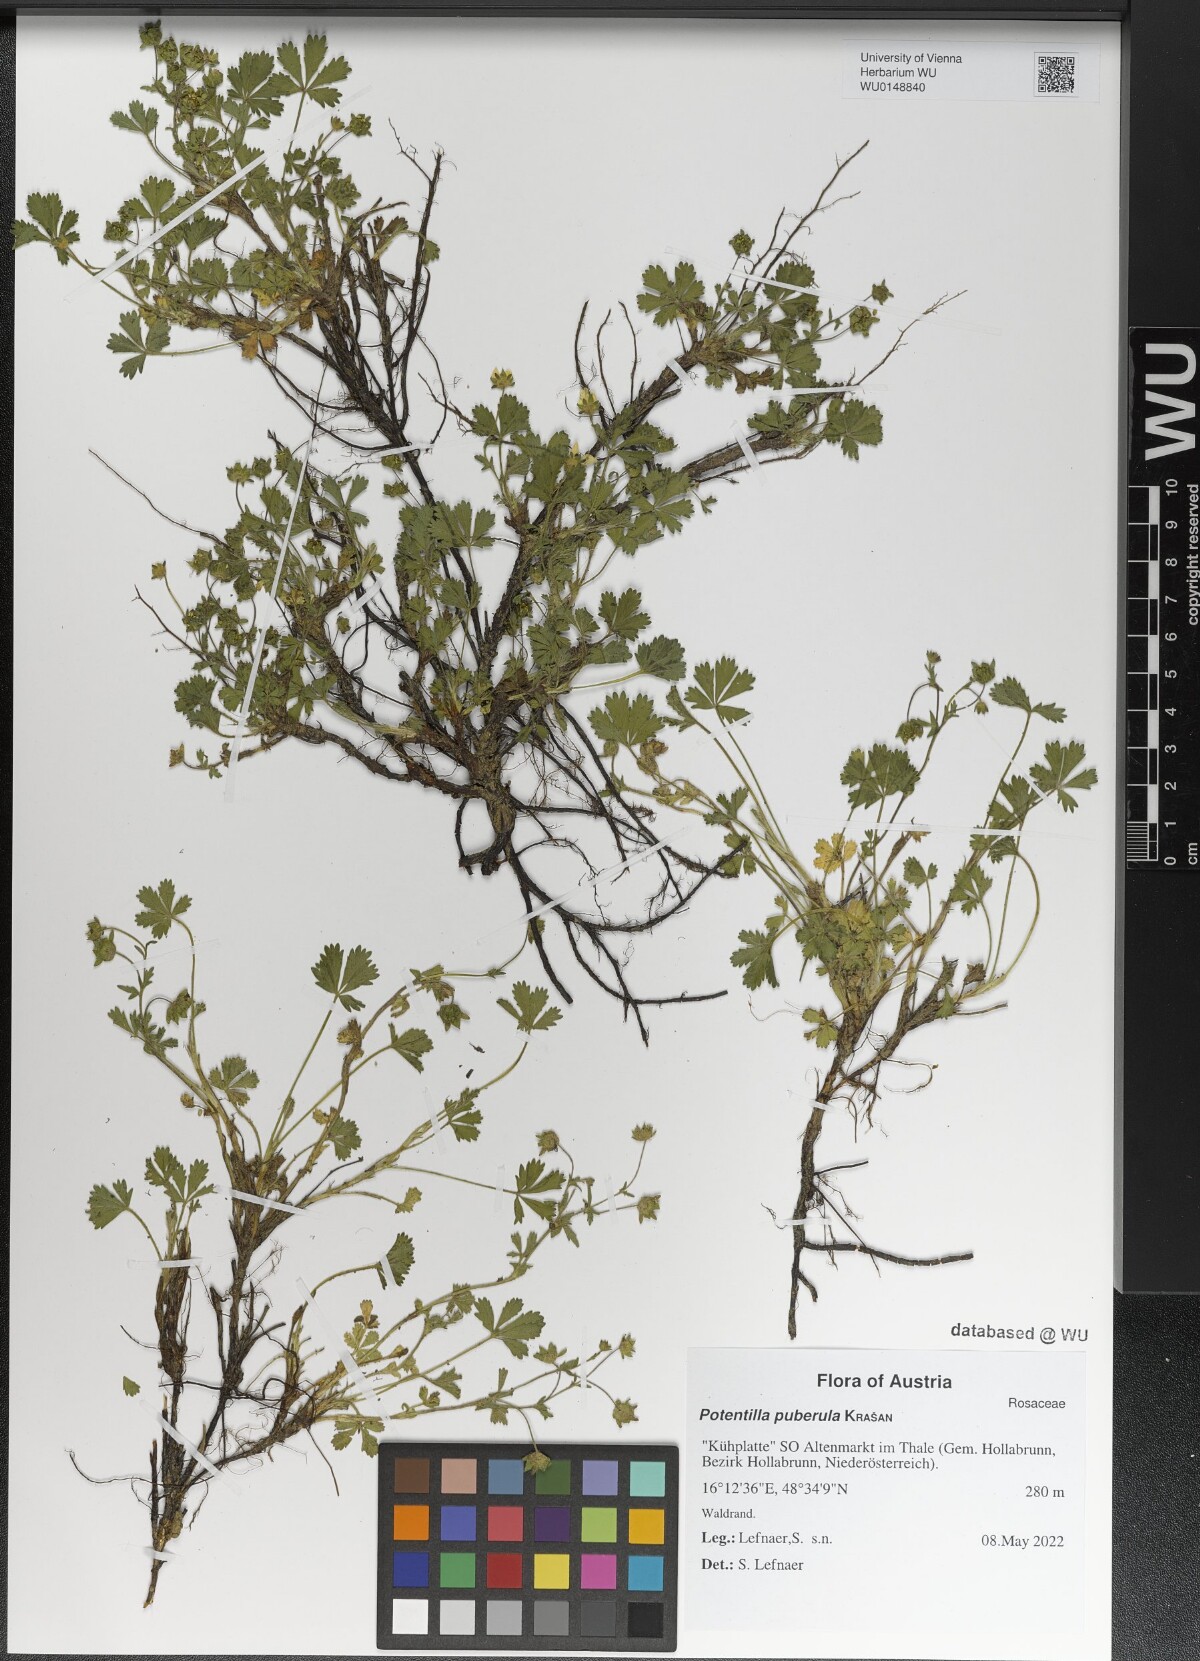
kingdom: Plantae
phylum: Tracheophyta
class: Magnoliopsida
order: Rosales
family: Rosaceae
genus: Potentilla
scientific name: Potentilla pusilla
